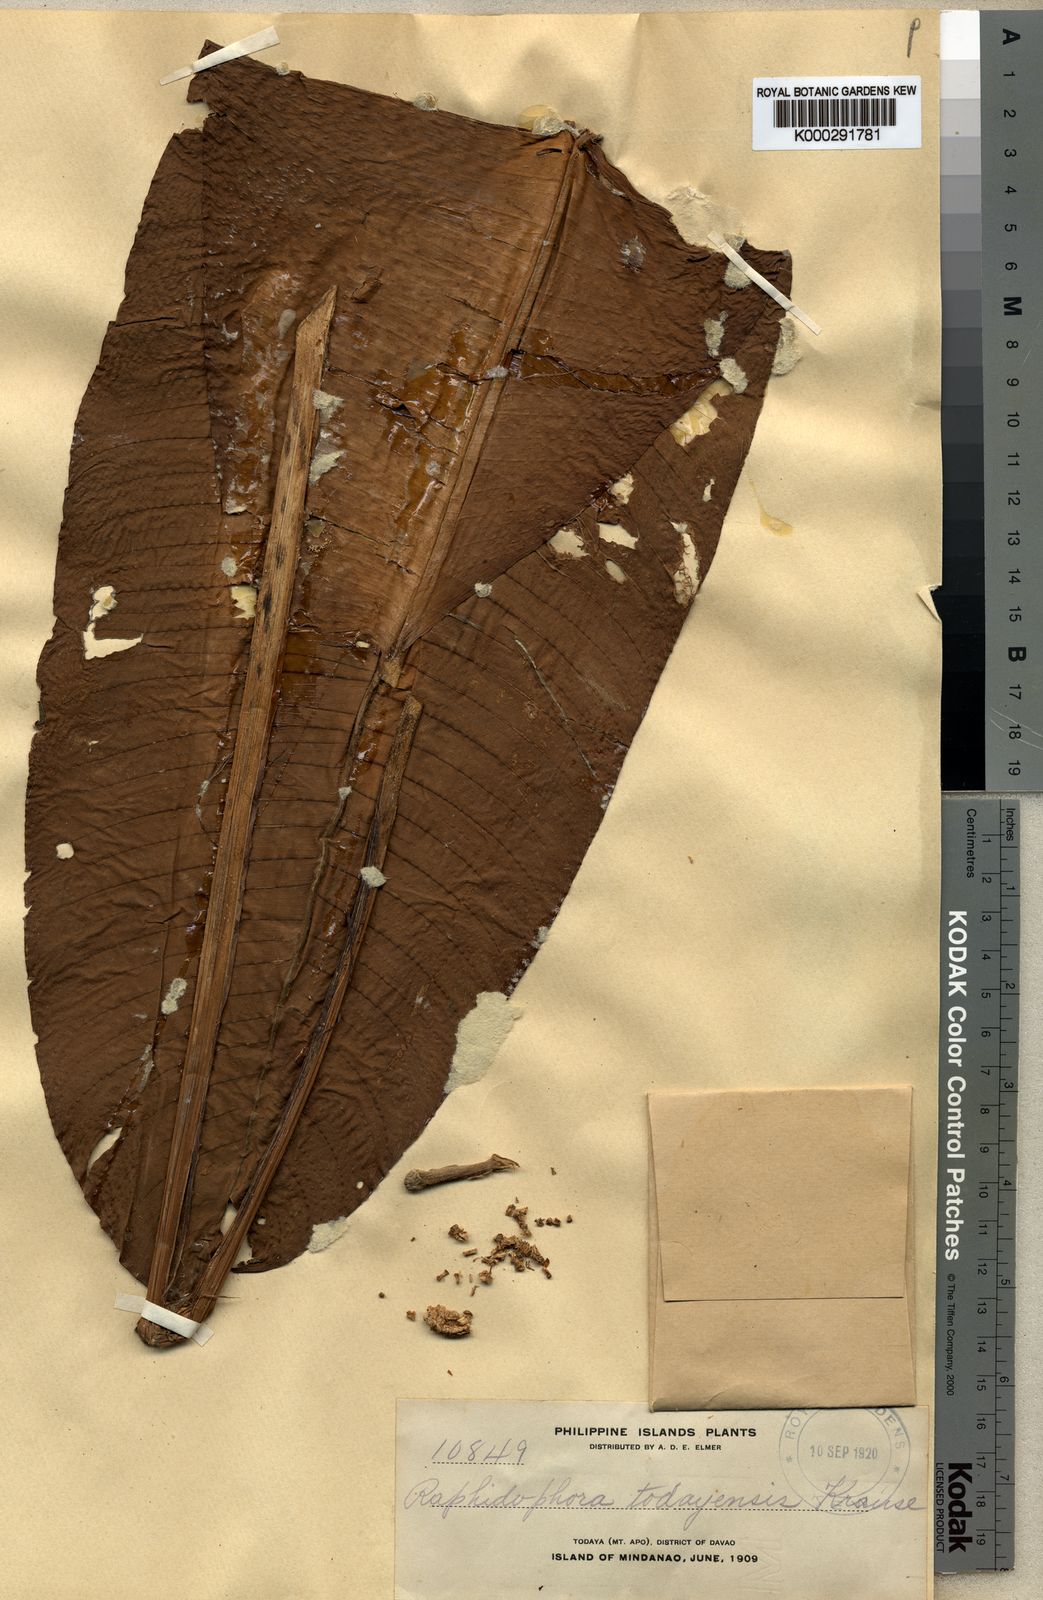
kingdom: Plantae
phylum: Tracheophyta
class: Liliopsida
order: Alismatales
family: Araceae
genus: Rhaphidophora
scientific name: Rhaphidophora todayensis
